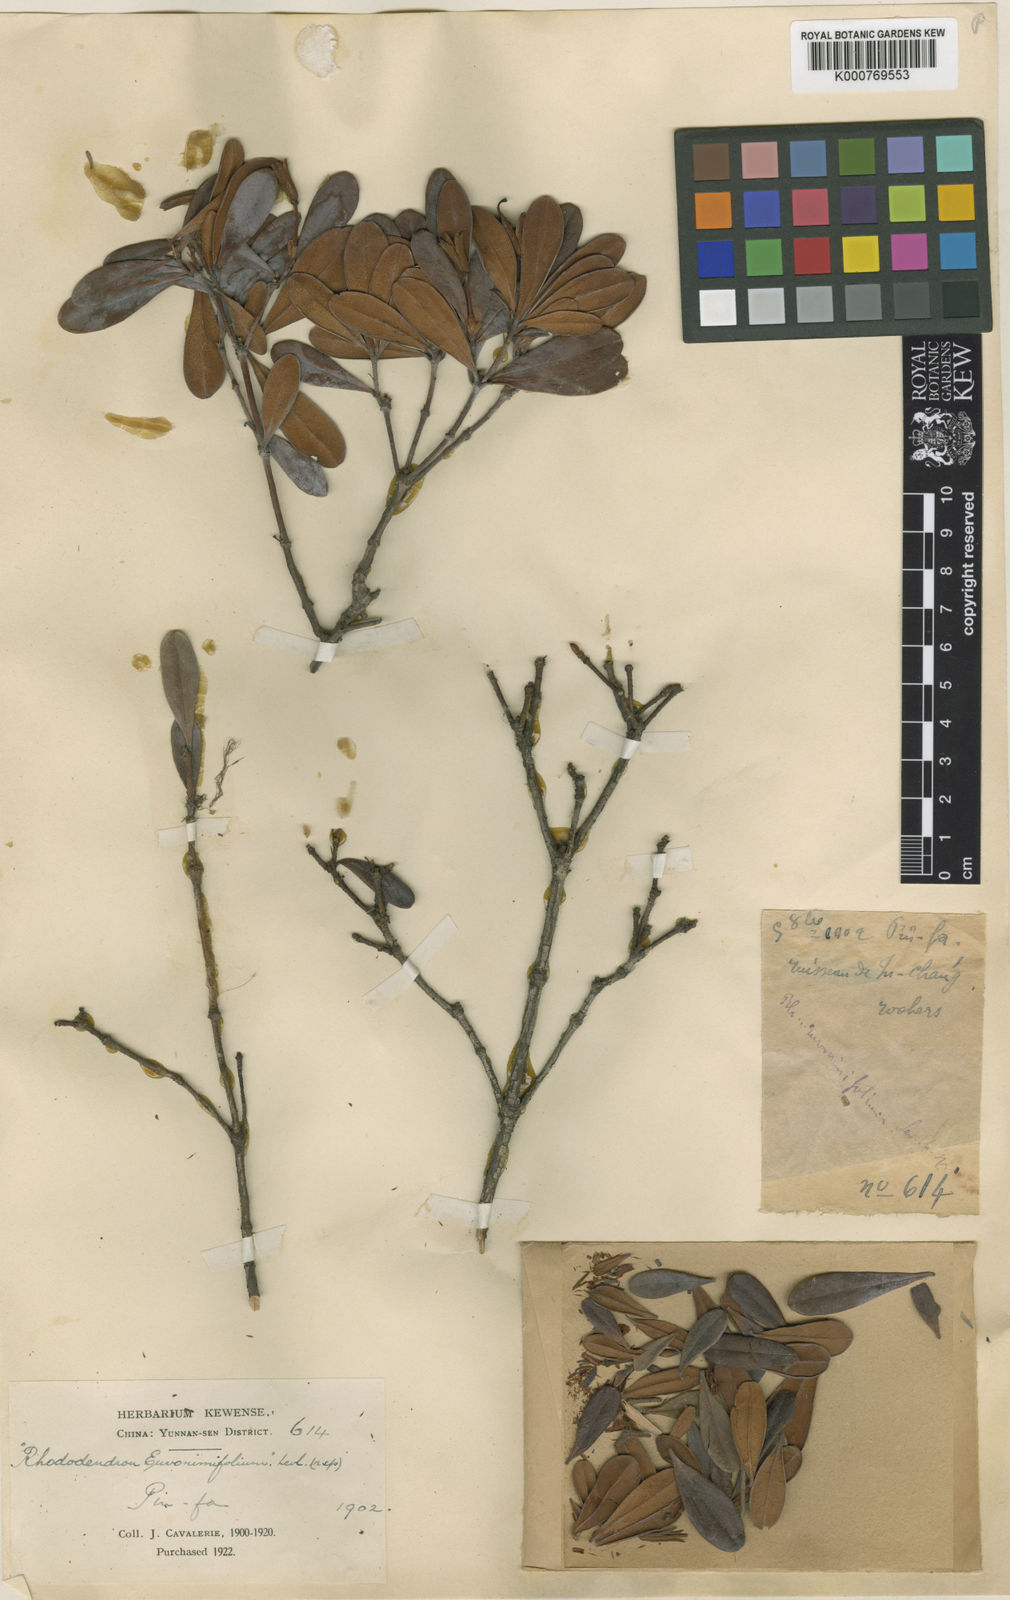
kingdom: Plantae
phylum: Tracheophyta
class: Magnoliopsida
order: Ericales
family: Ericaceae
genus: Rhododendron
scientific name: Rhododendron
